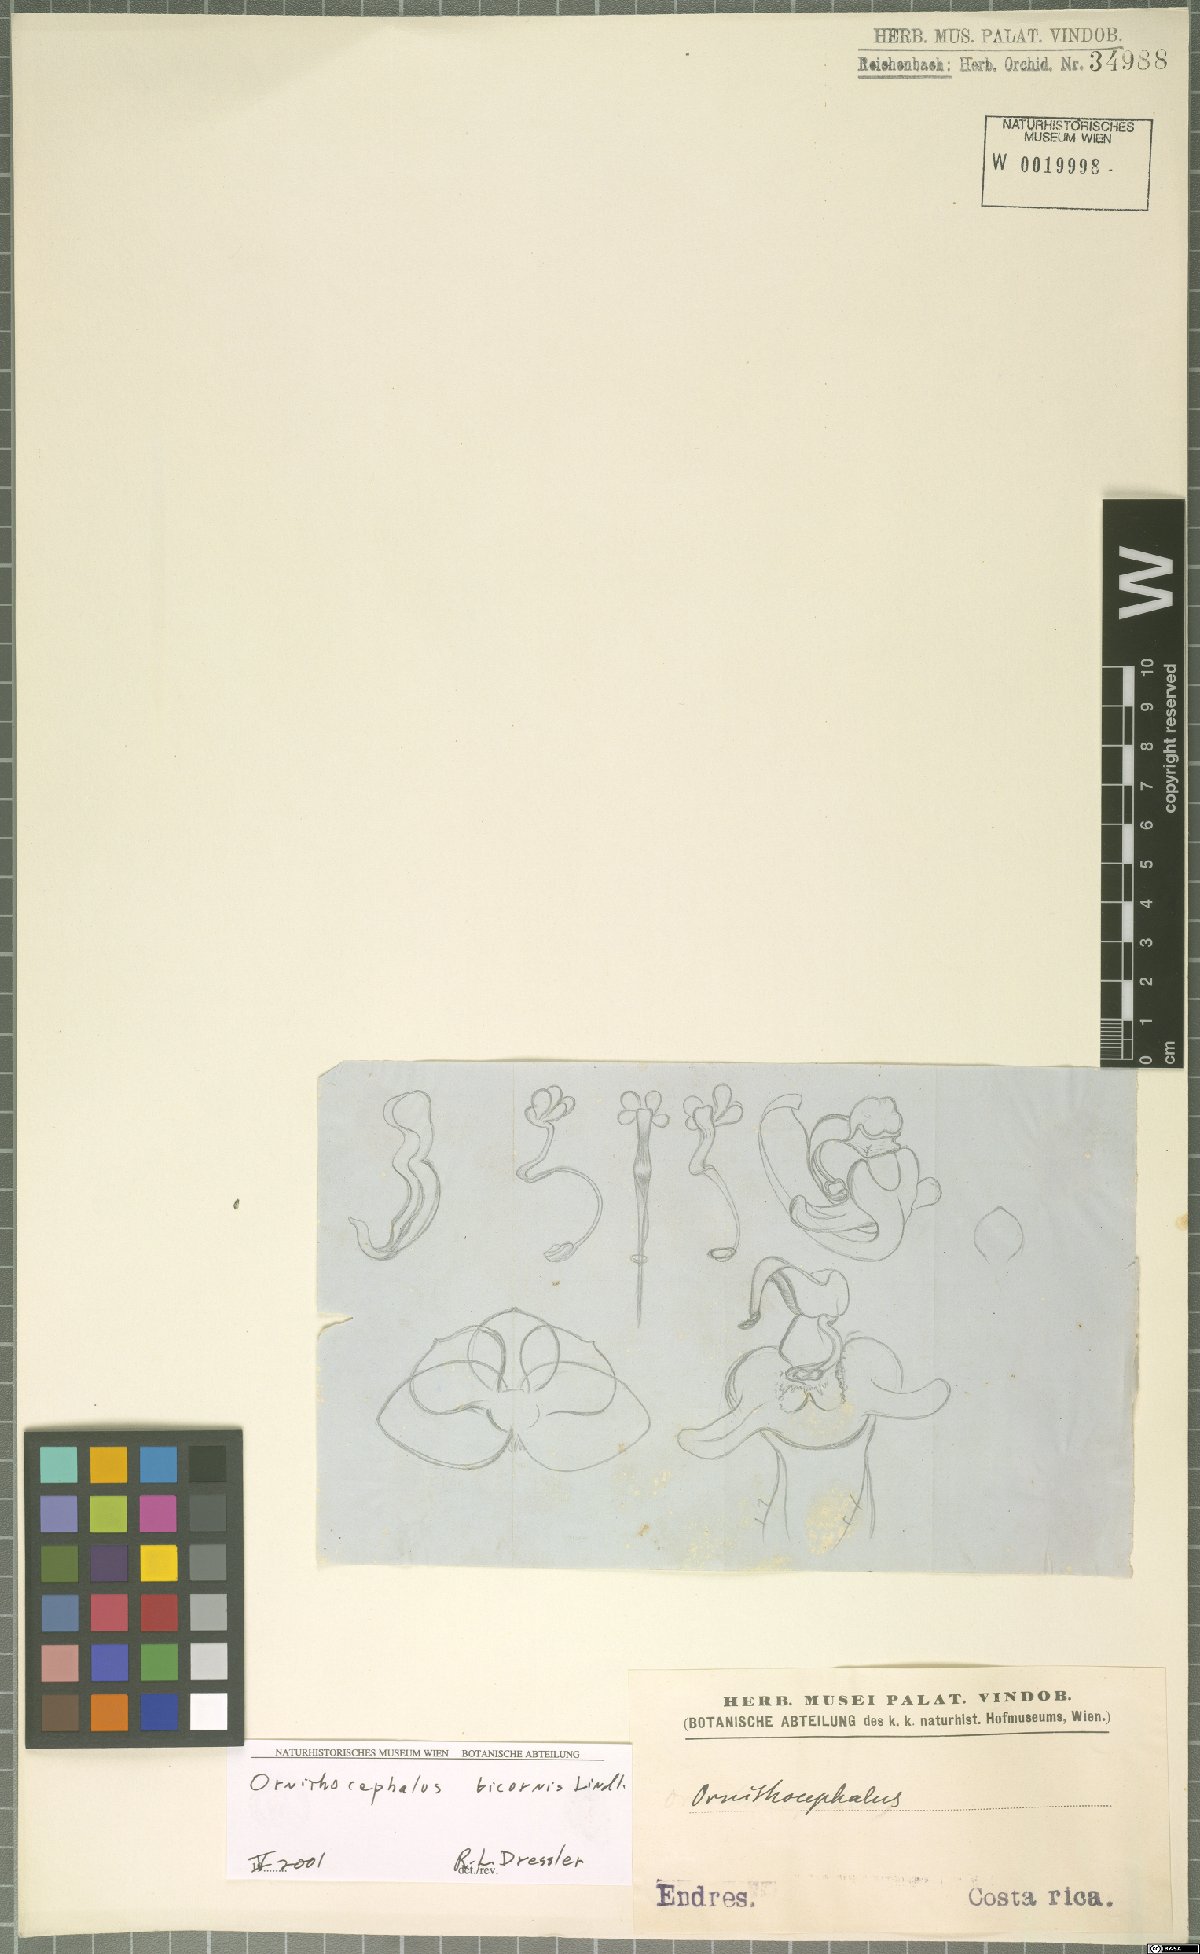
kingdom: Plantae
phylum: Tracheophyta
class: Liliopsida
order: Asparagales
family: Orchidaceae
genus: Ornithocephalus
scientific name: Ornithocephalus bicornis
